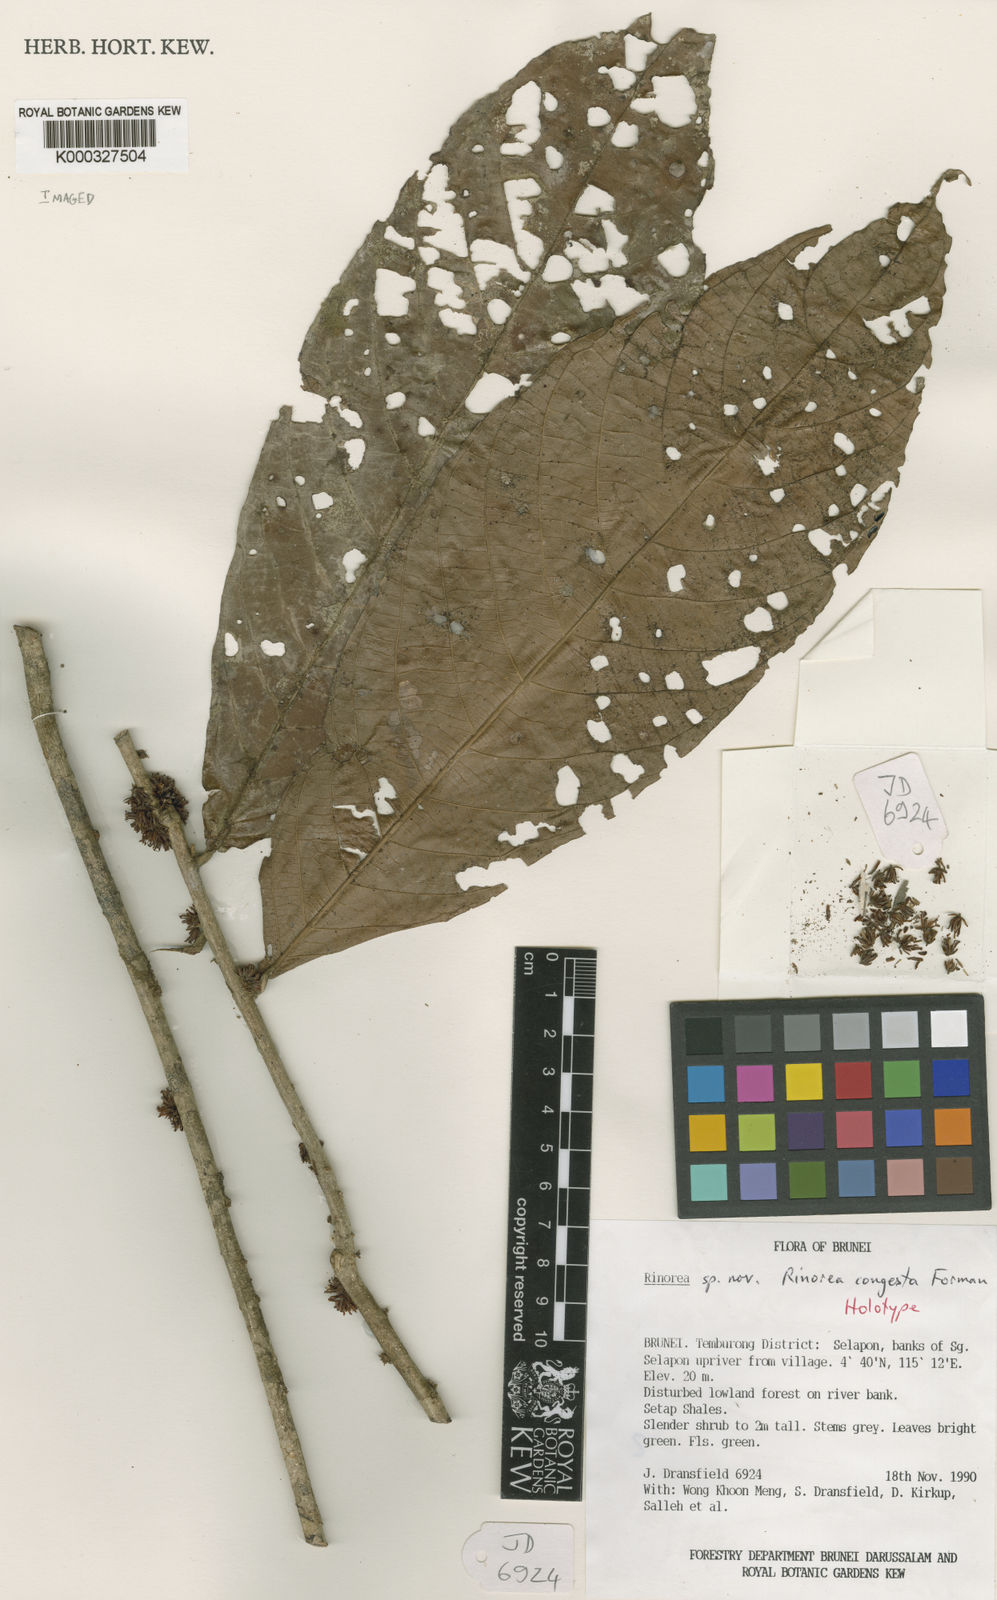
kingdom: Plantae
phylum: Tracheophyta
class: Magnoliopsida
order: Malpighiales
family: Violaceae
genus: Rinorea
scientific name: Rinorea congesta
